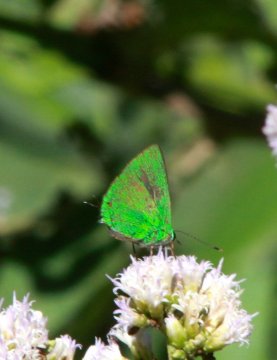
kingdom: Animalia
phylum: Arthropoda
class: Insecta
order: Lepidoptera
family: Lycaenidae
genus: Chalybs
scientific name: Chalybs janias
